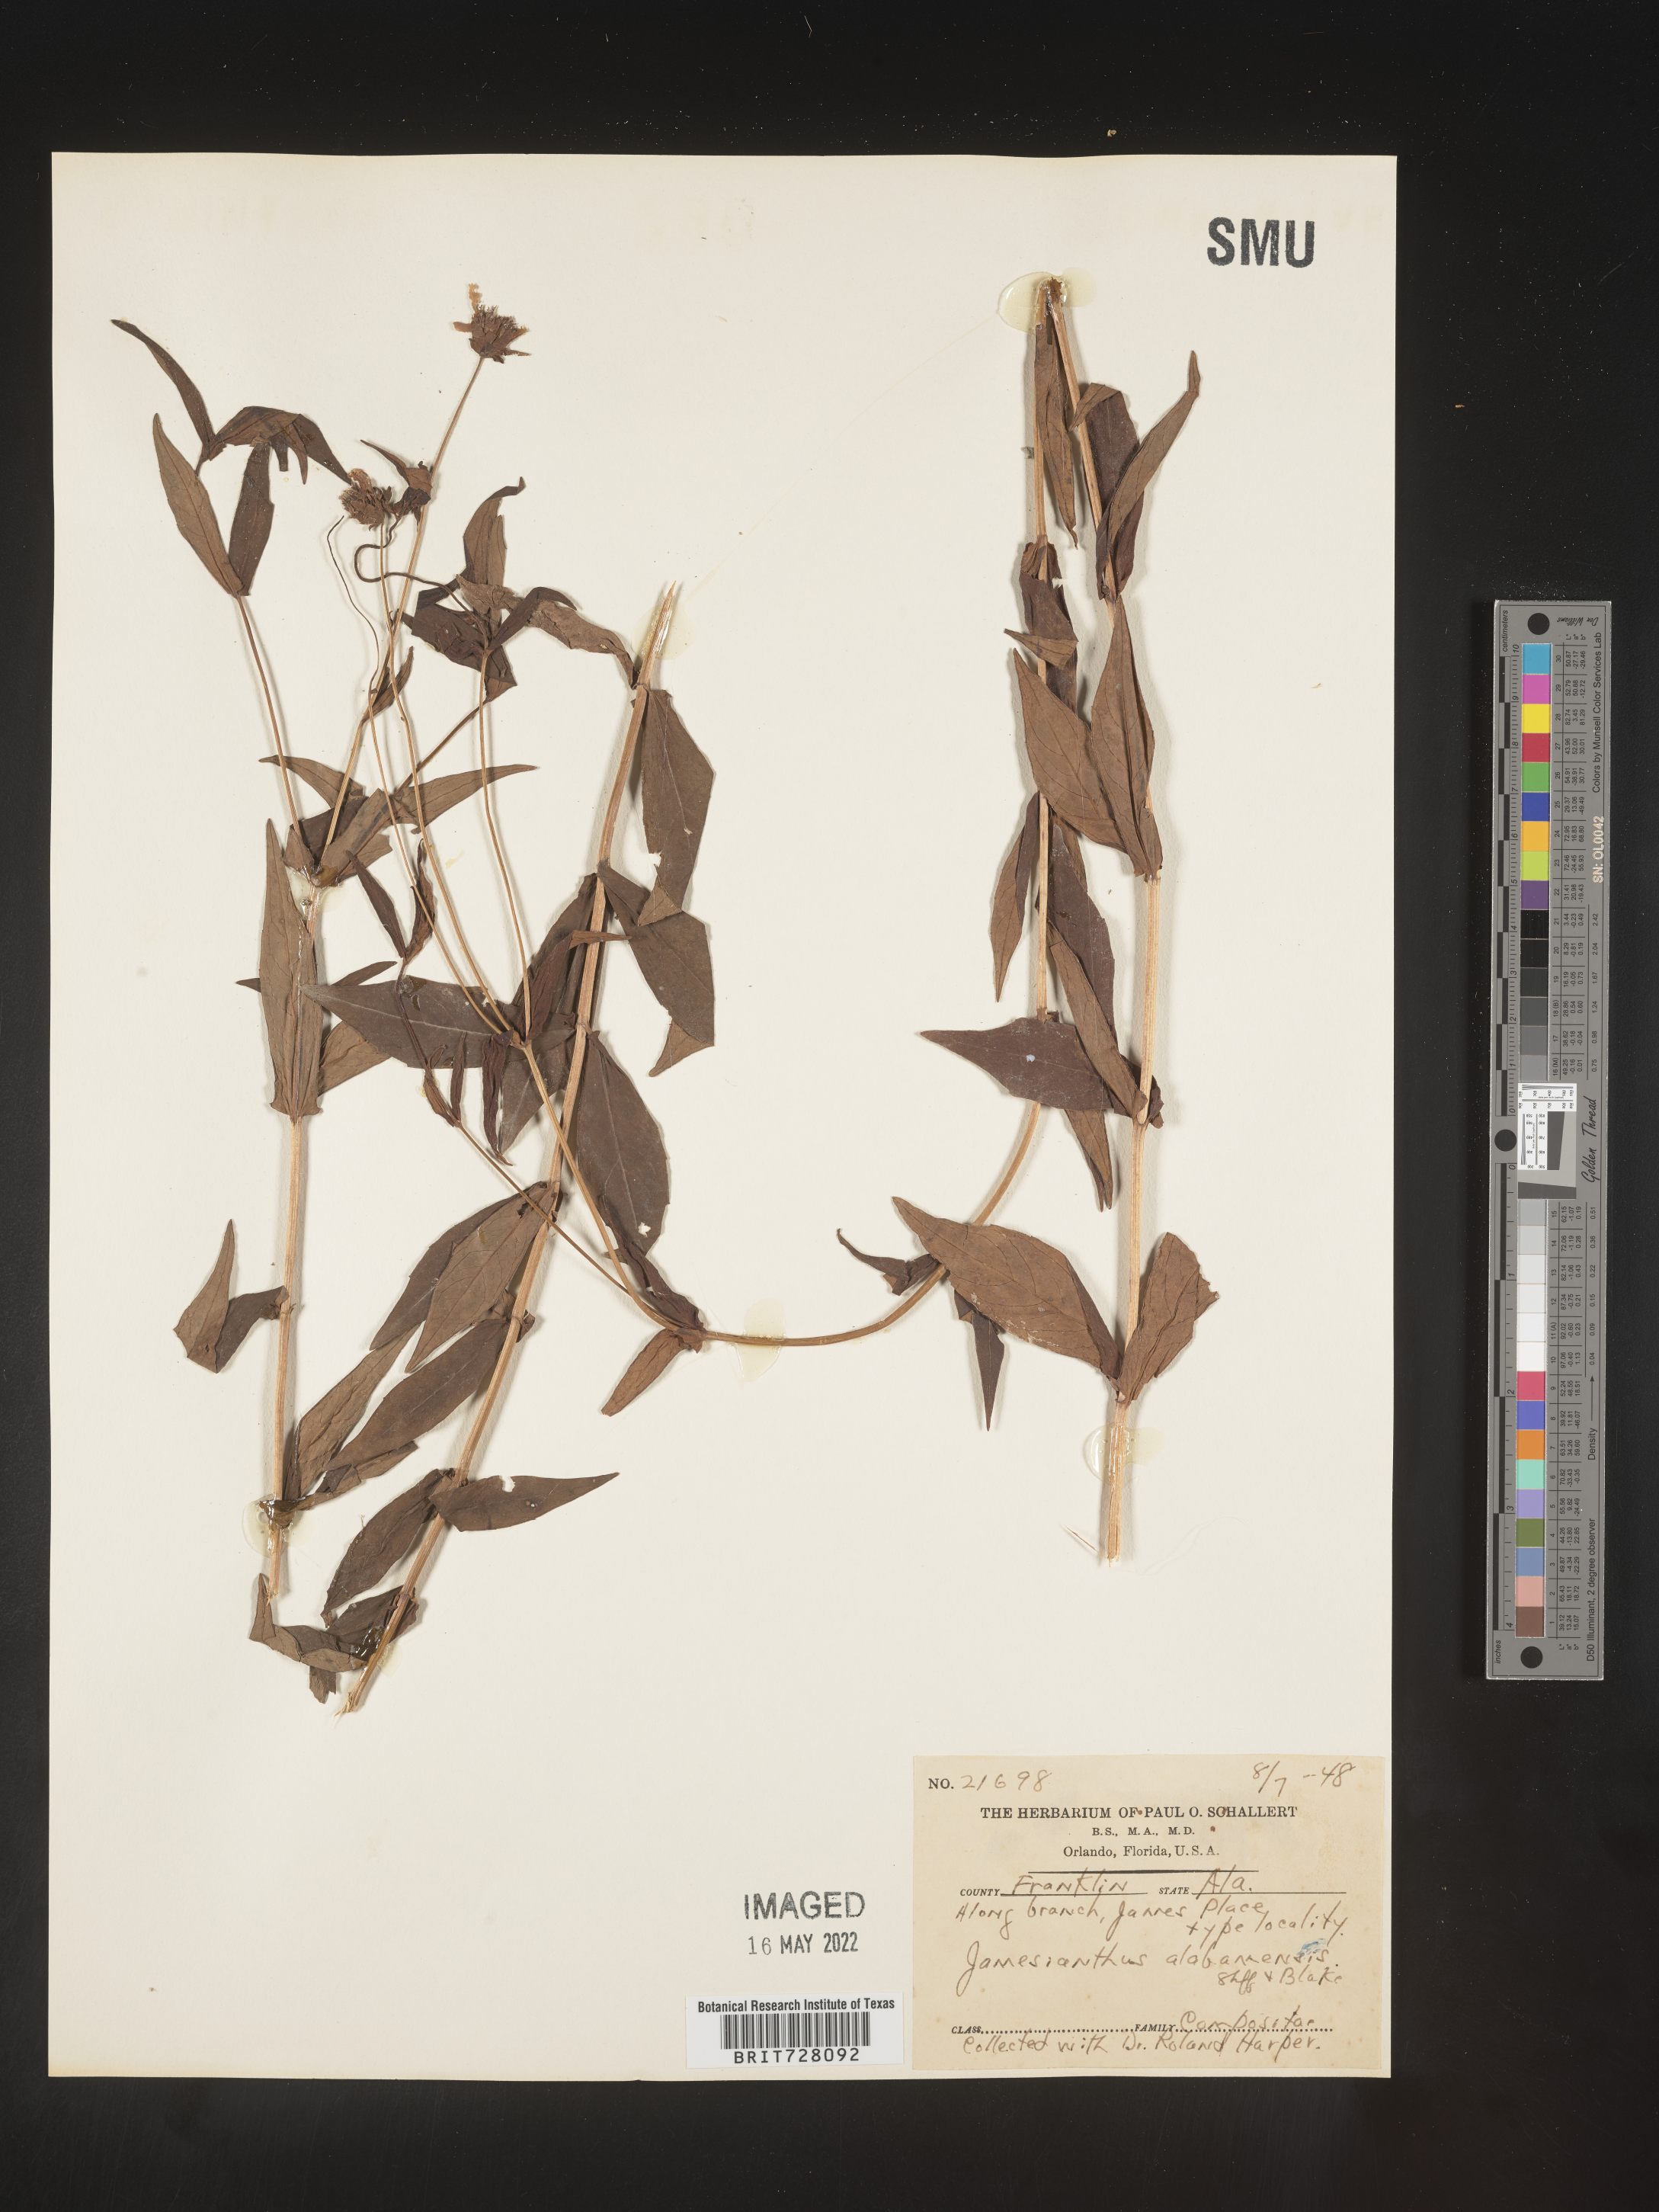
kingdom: Plantae
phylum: Tracheophyta
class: Magnoliopsida
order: Asterales
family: Asteraceae
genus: Jamesianthus
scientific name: Jamesianthus
